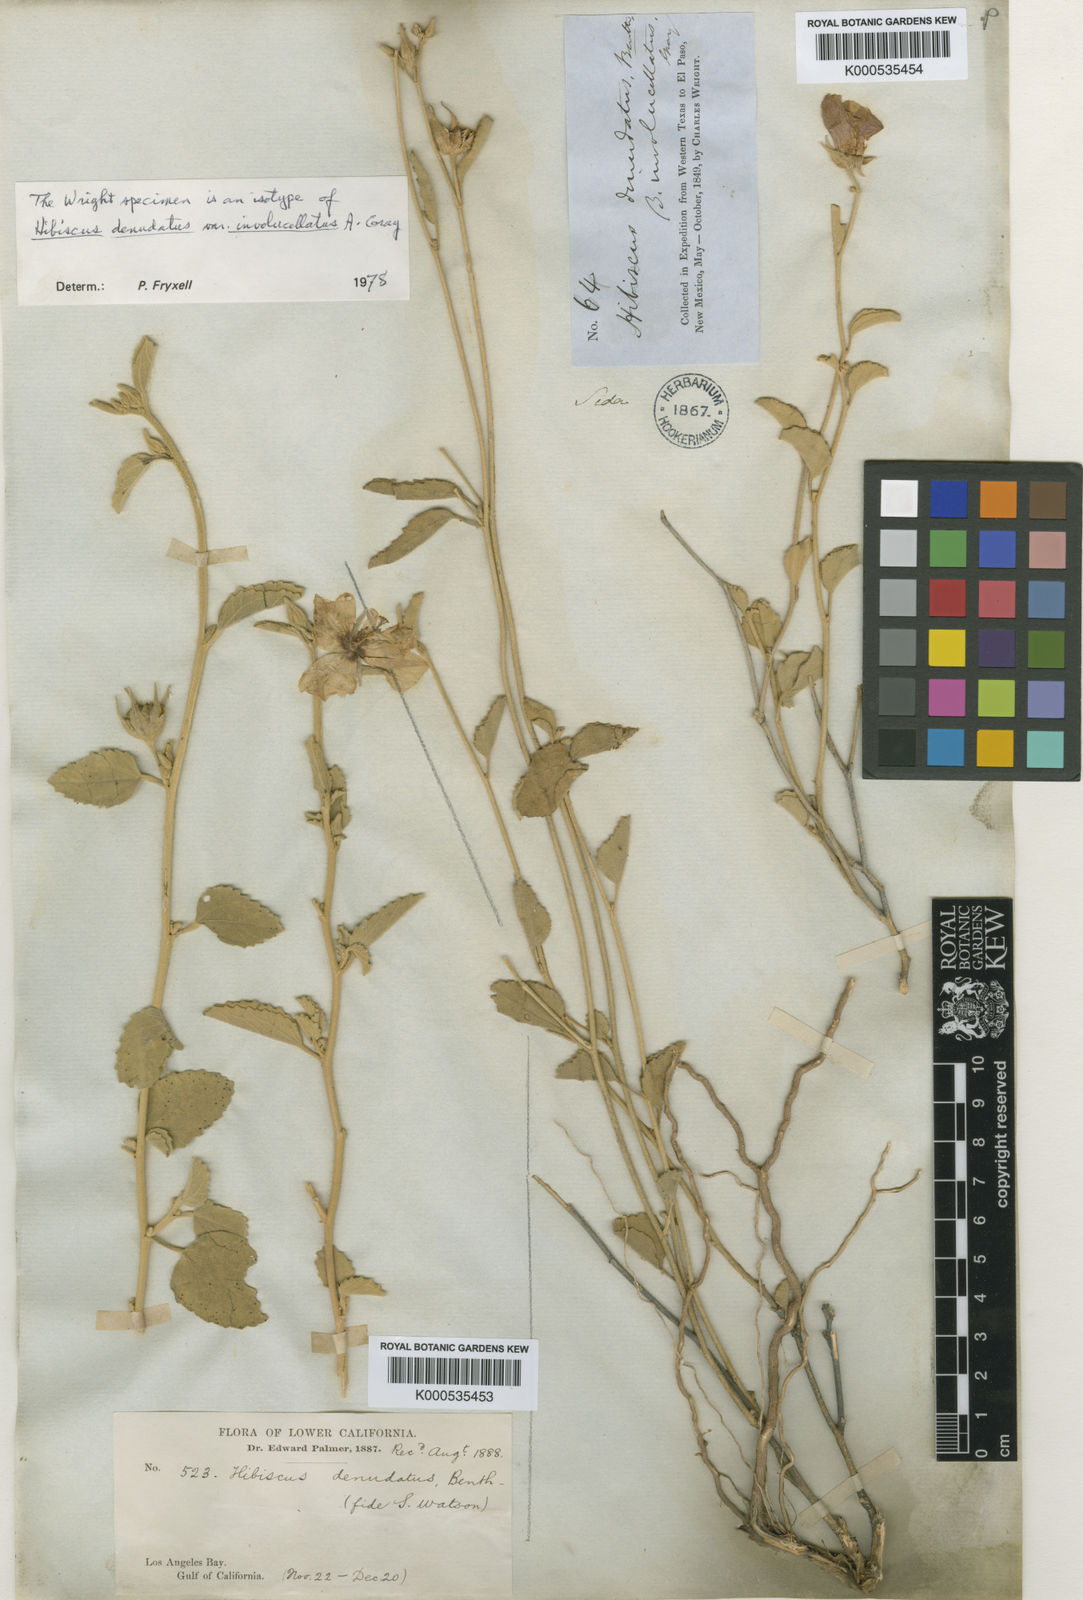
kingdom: Plantae
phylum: Tracheophyta
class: Magnoliopsida
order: Malvales
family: Malvaceae
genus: Hibiscus
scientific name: Hibiscus denudatus
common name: Paleface
